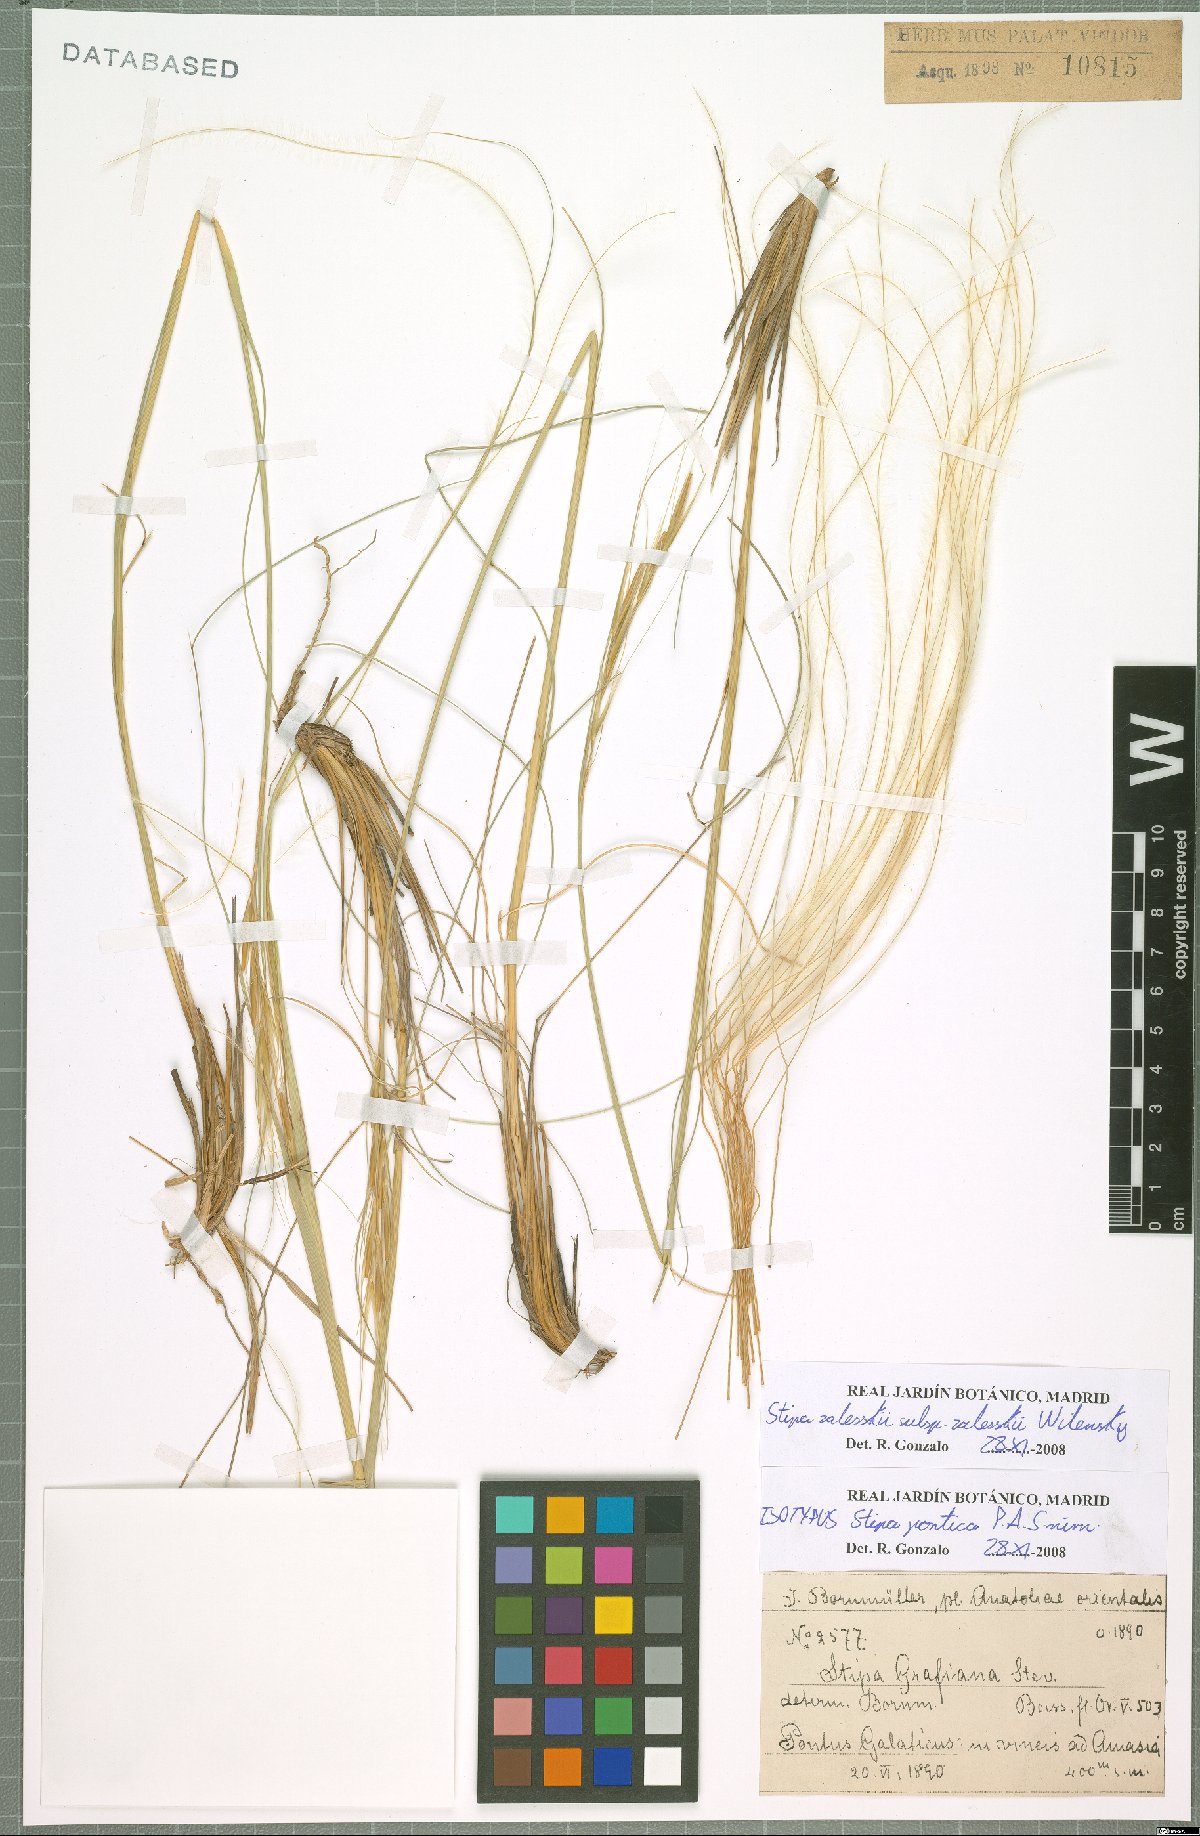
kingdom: Plantae
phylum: Tracheophyta
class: Liliopsida
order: Poales
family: Poaceae
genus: Stipa
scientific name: Stipa zalesskii
